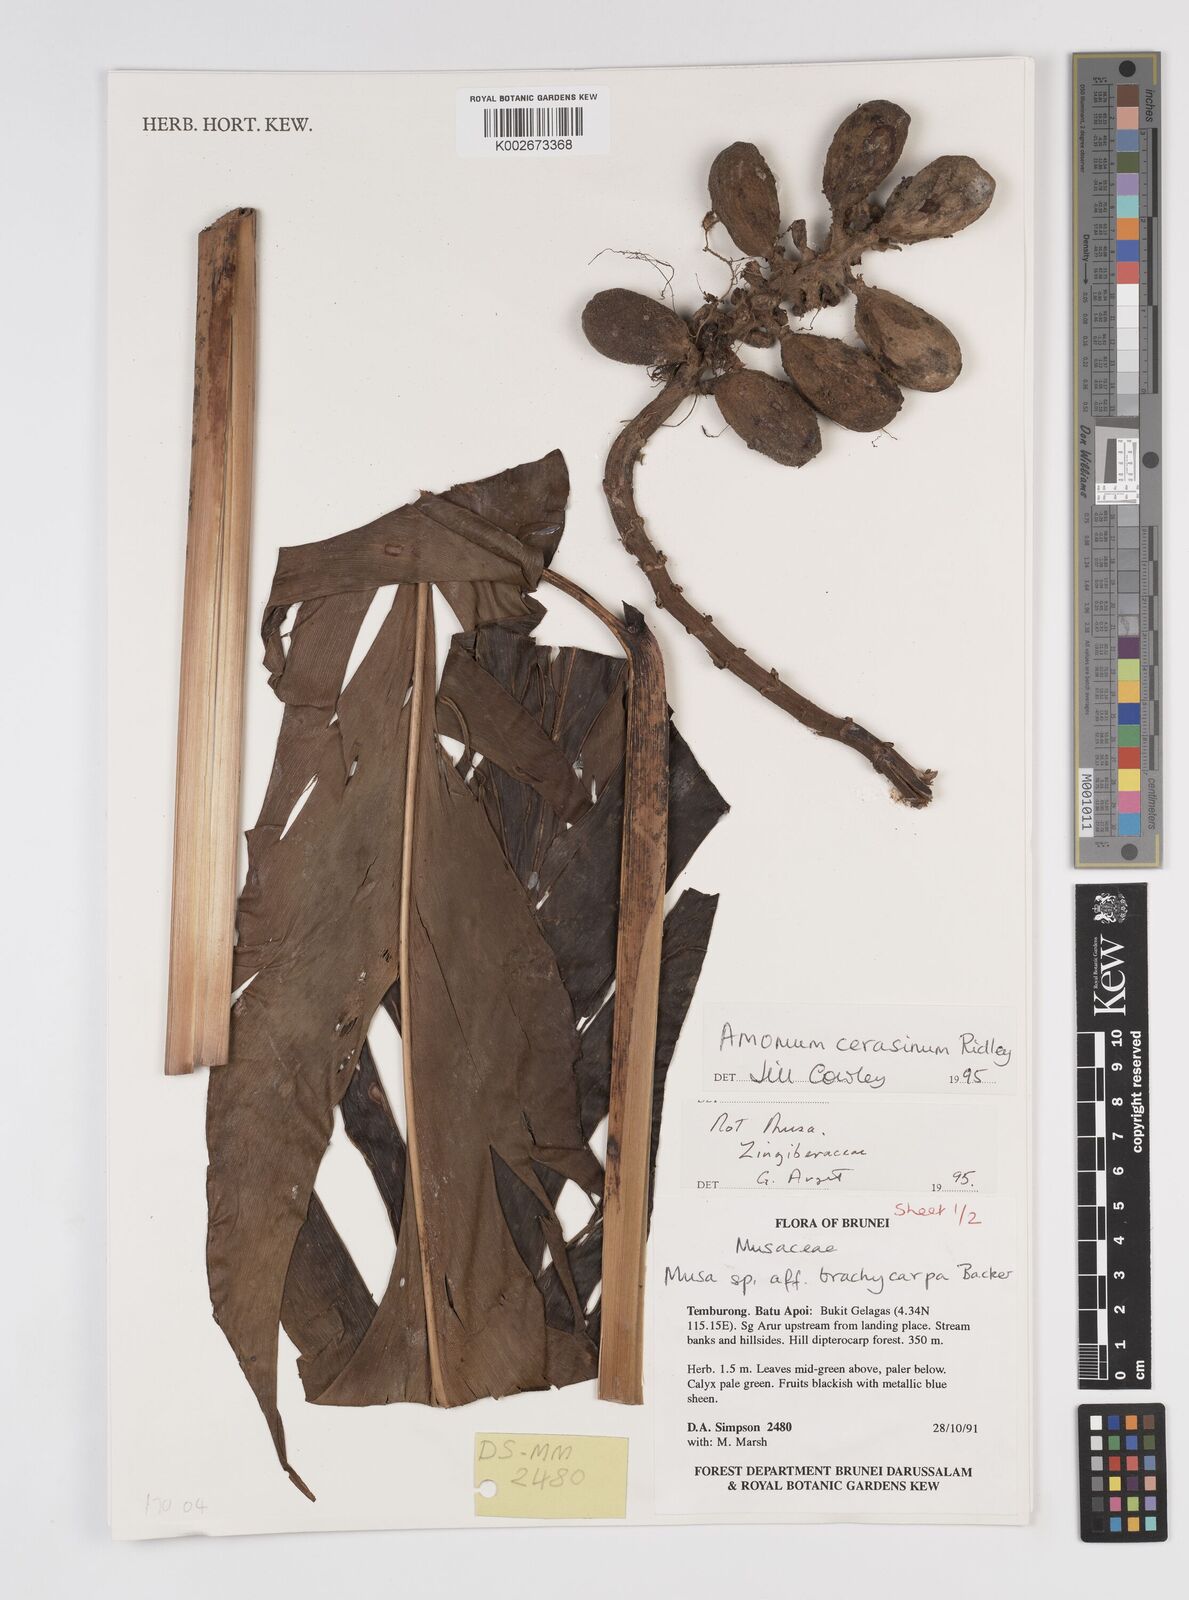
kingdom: Plantae
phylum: Tracheophyta
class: Liliopsida
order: Zingiberales
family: Zingiberaceae
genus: Meistera
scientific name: Meistera cerasina
